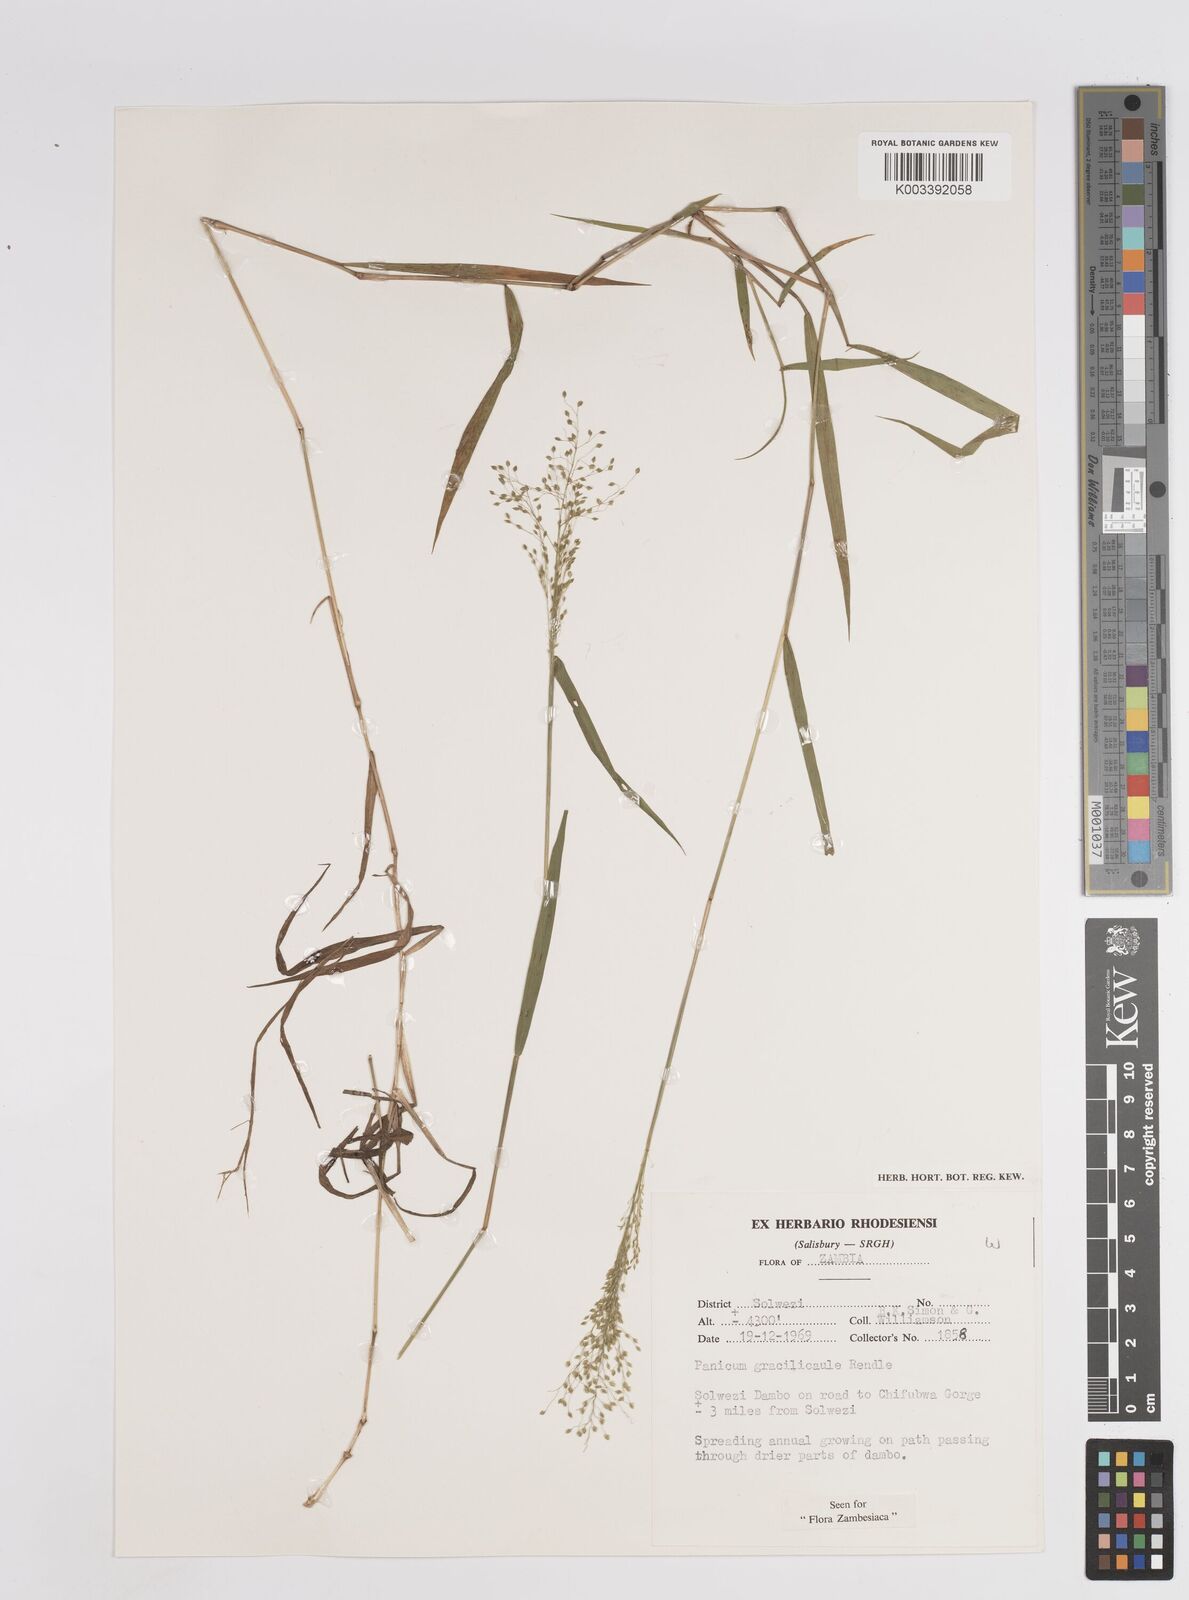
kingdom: Plantae
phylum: Tracheophyta
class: Liliopsida
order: Poales
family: Poaceae
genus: Trichanthecium
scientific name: Trichanthecium gracilicaule
